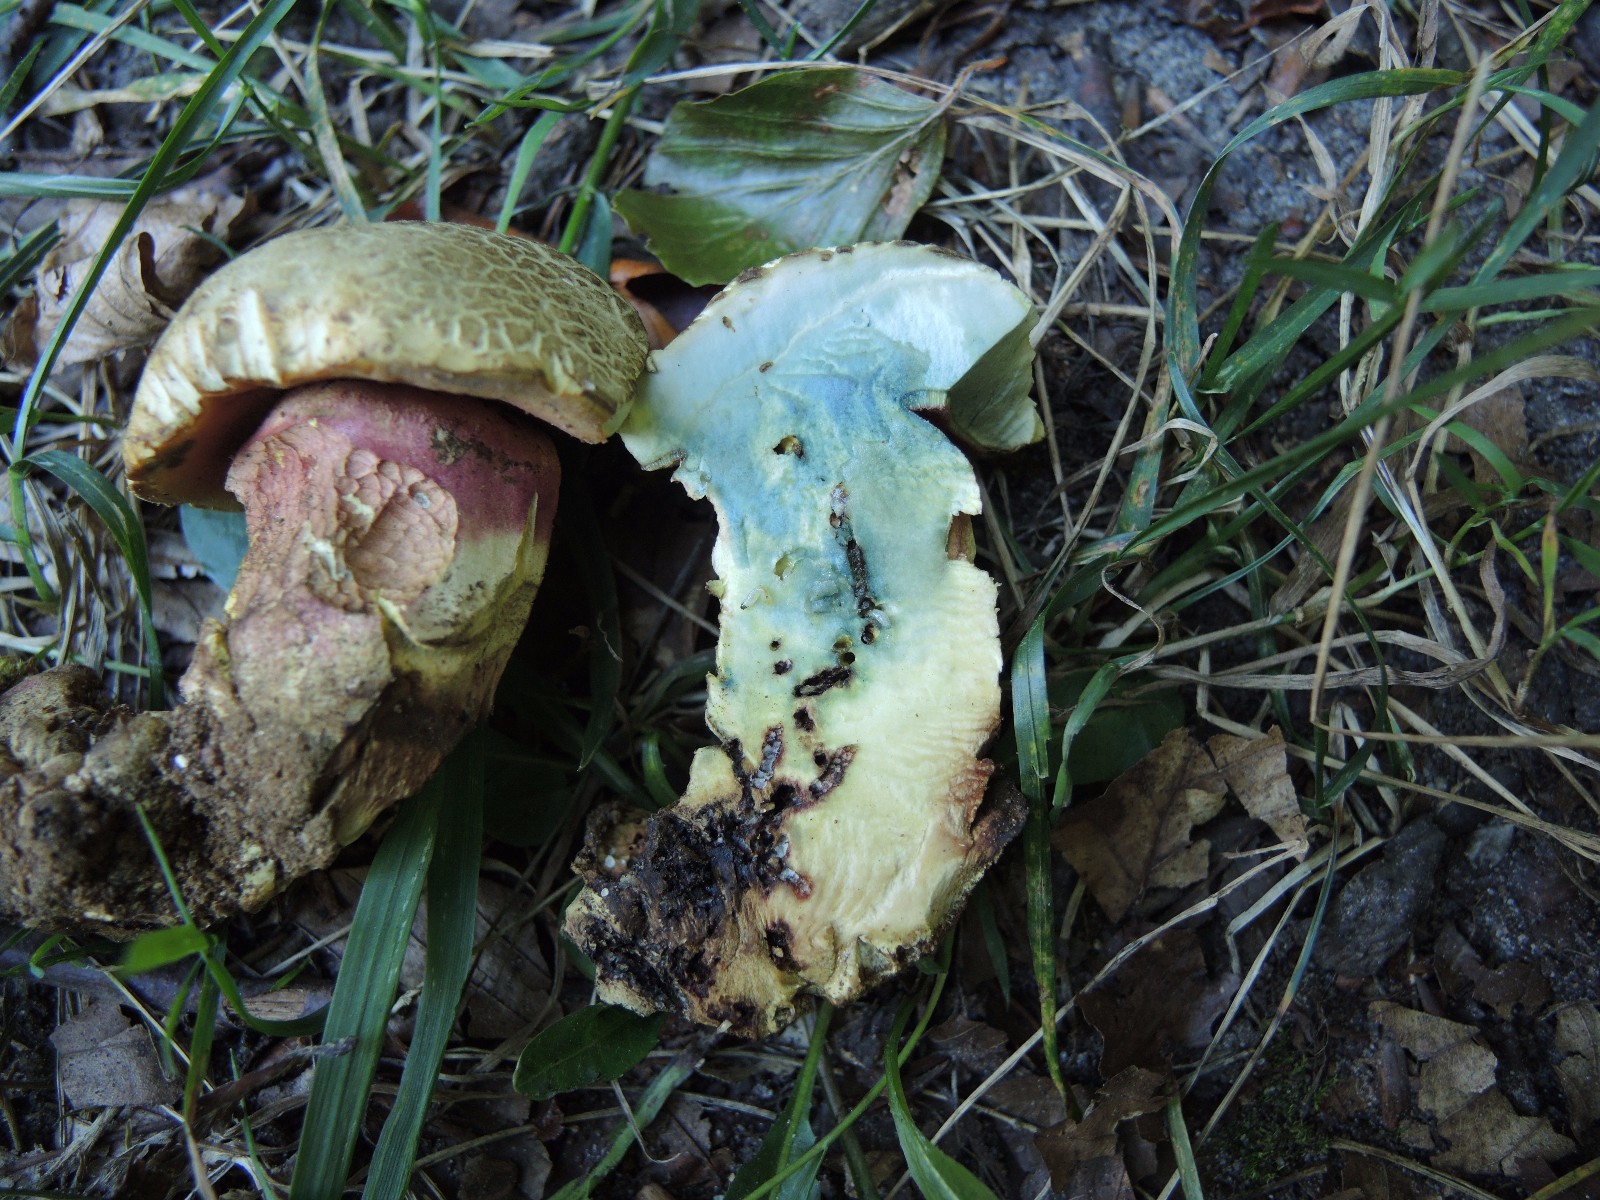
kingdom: Fungi
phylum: Basidiomycota
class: Agaricomycetes
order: Boletales
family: Boletaceae
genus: Rubroboletus
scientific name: Rubroboletus satanas
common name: Satans rørhat
